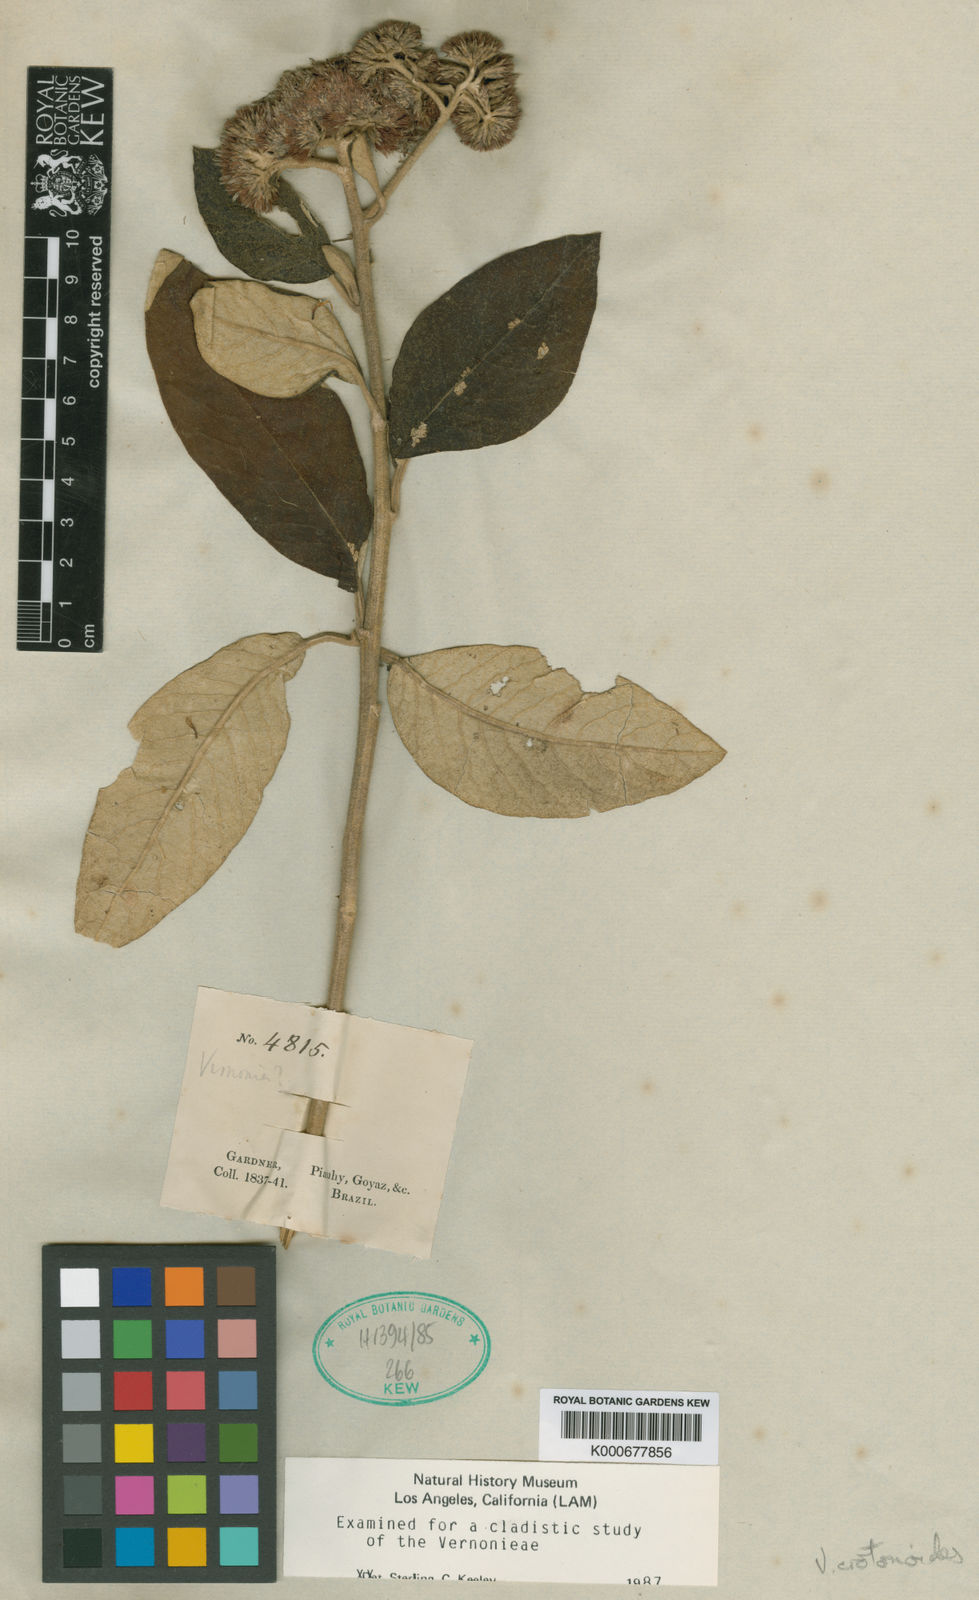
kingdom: Plantae
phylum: Tracheophyta
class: Magnoliopsida
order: Asterales
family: Asteraceae
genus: Eremanthus
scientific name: Eremanthus crotonoides
